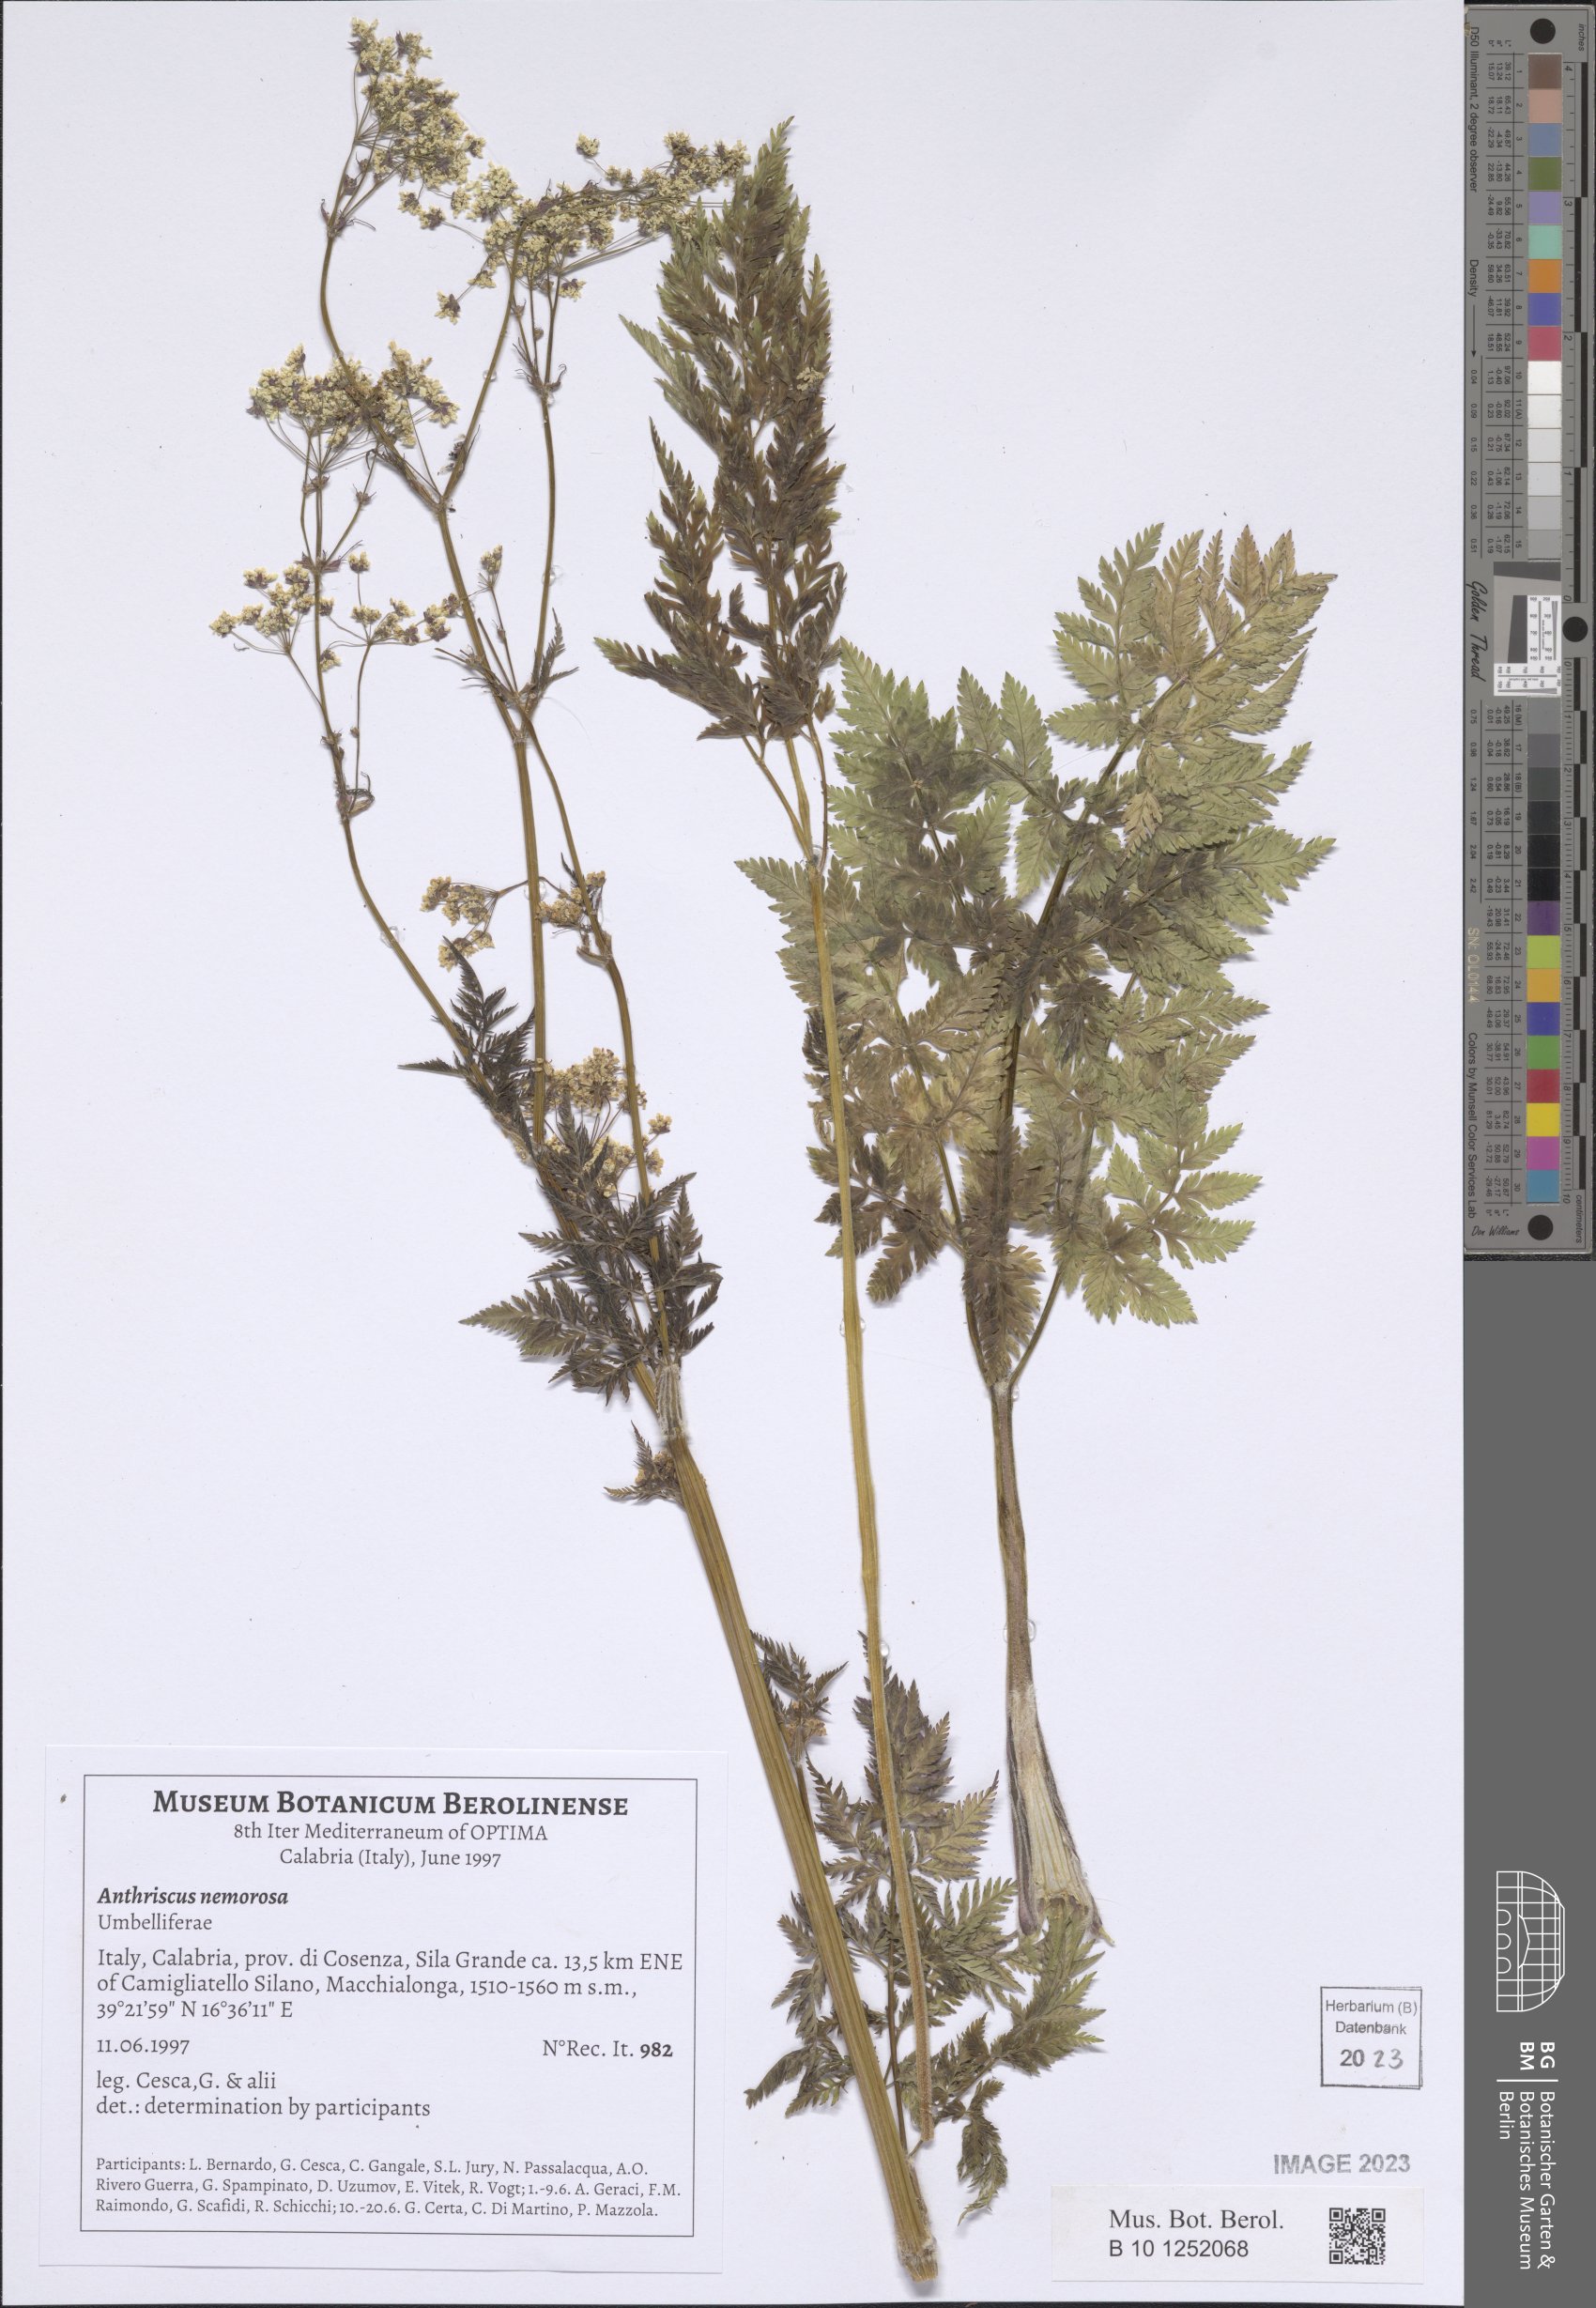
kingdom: Plantae
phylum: Tracheophyta
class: Magnoliopsida
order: Apiales
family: Apiaceae
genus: Anthriscus
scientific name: Anthriscus sylvestris
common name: Cow parsley
